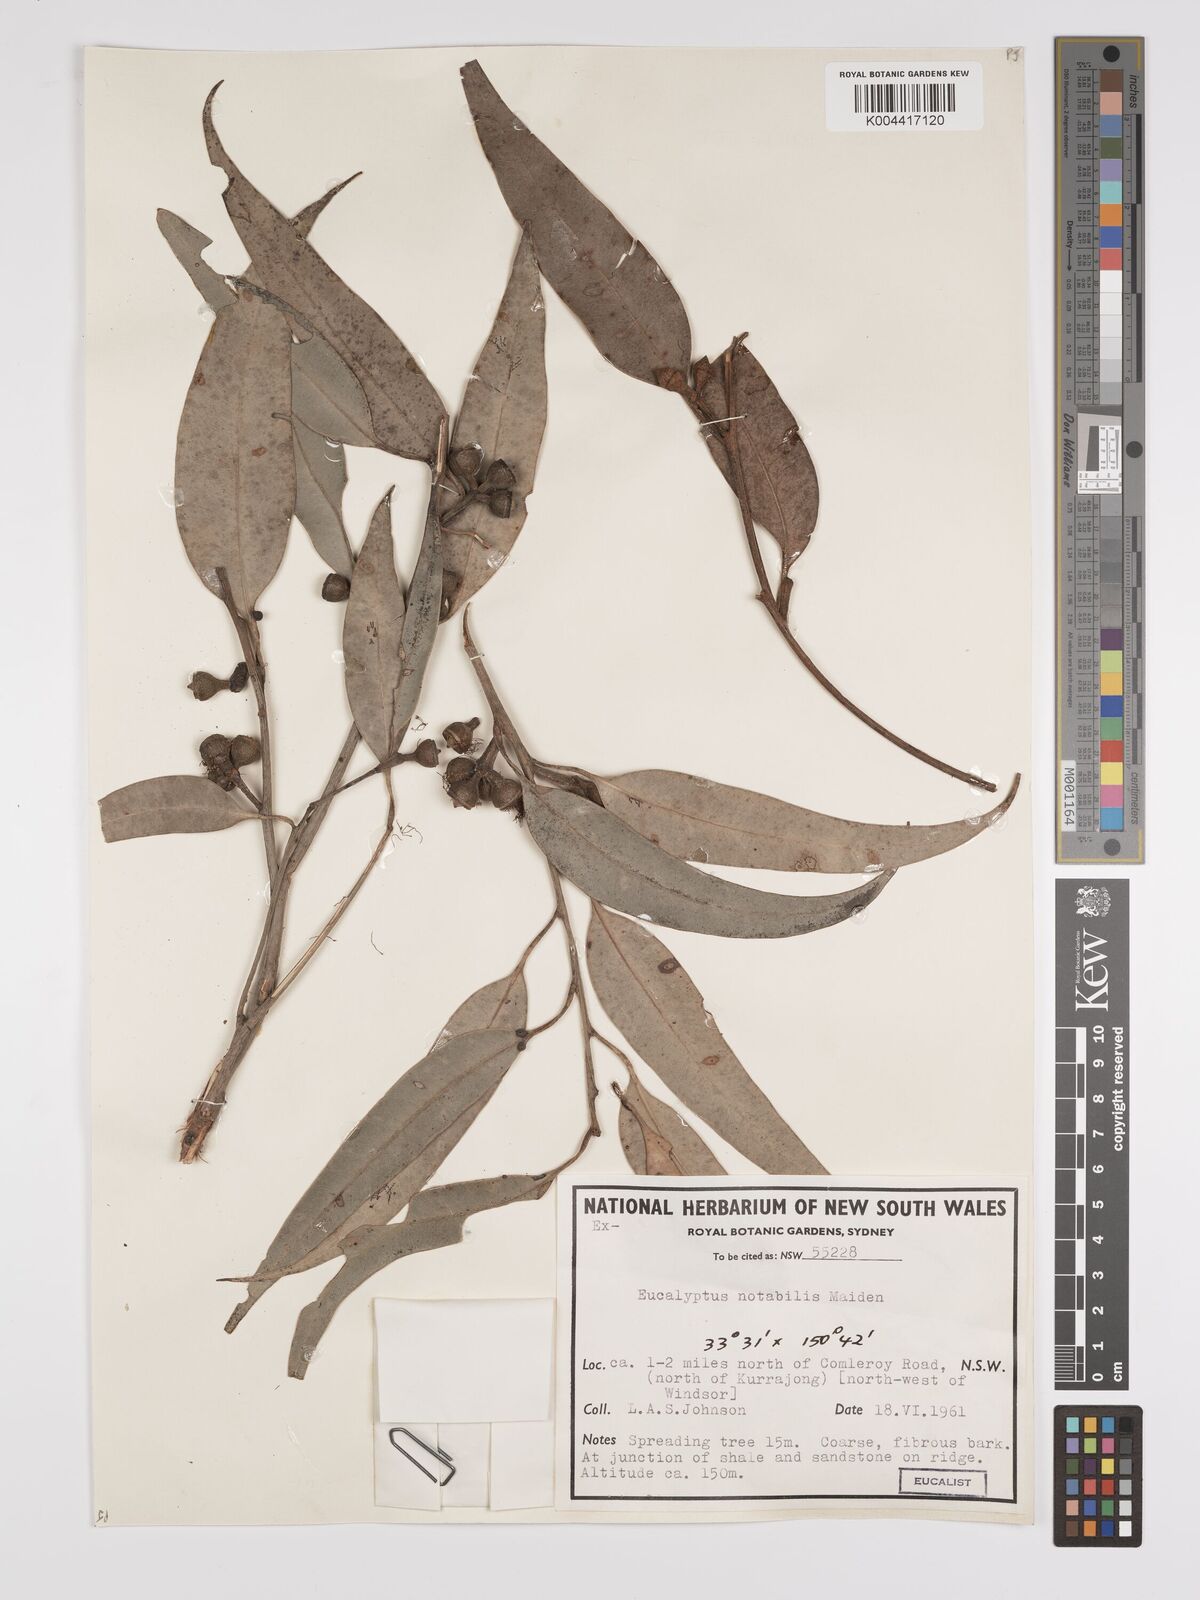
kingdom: Plantae
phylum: Tracheophyta
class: Magnoliopsida
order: Myrtales
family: Myrtaceae
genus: Eucalyptus
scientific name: Eucalyptus notabilis
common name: Blue mountains-mahogany
